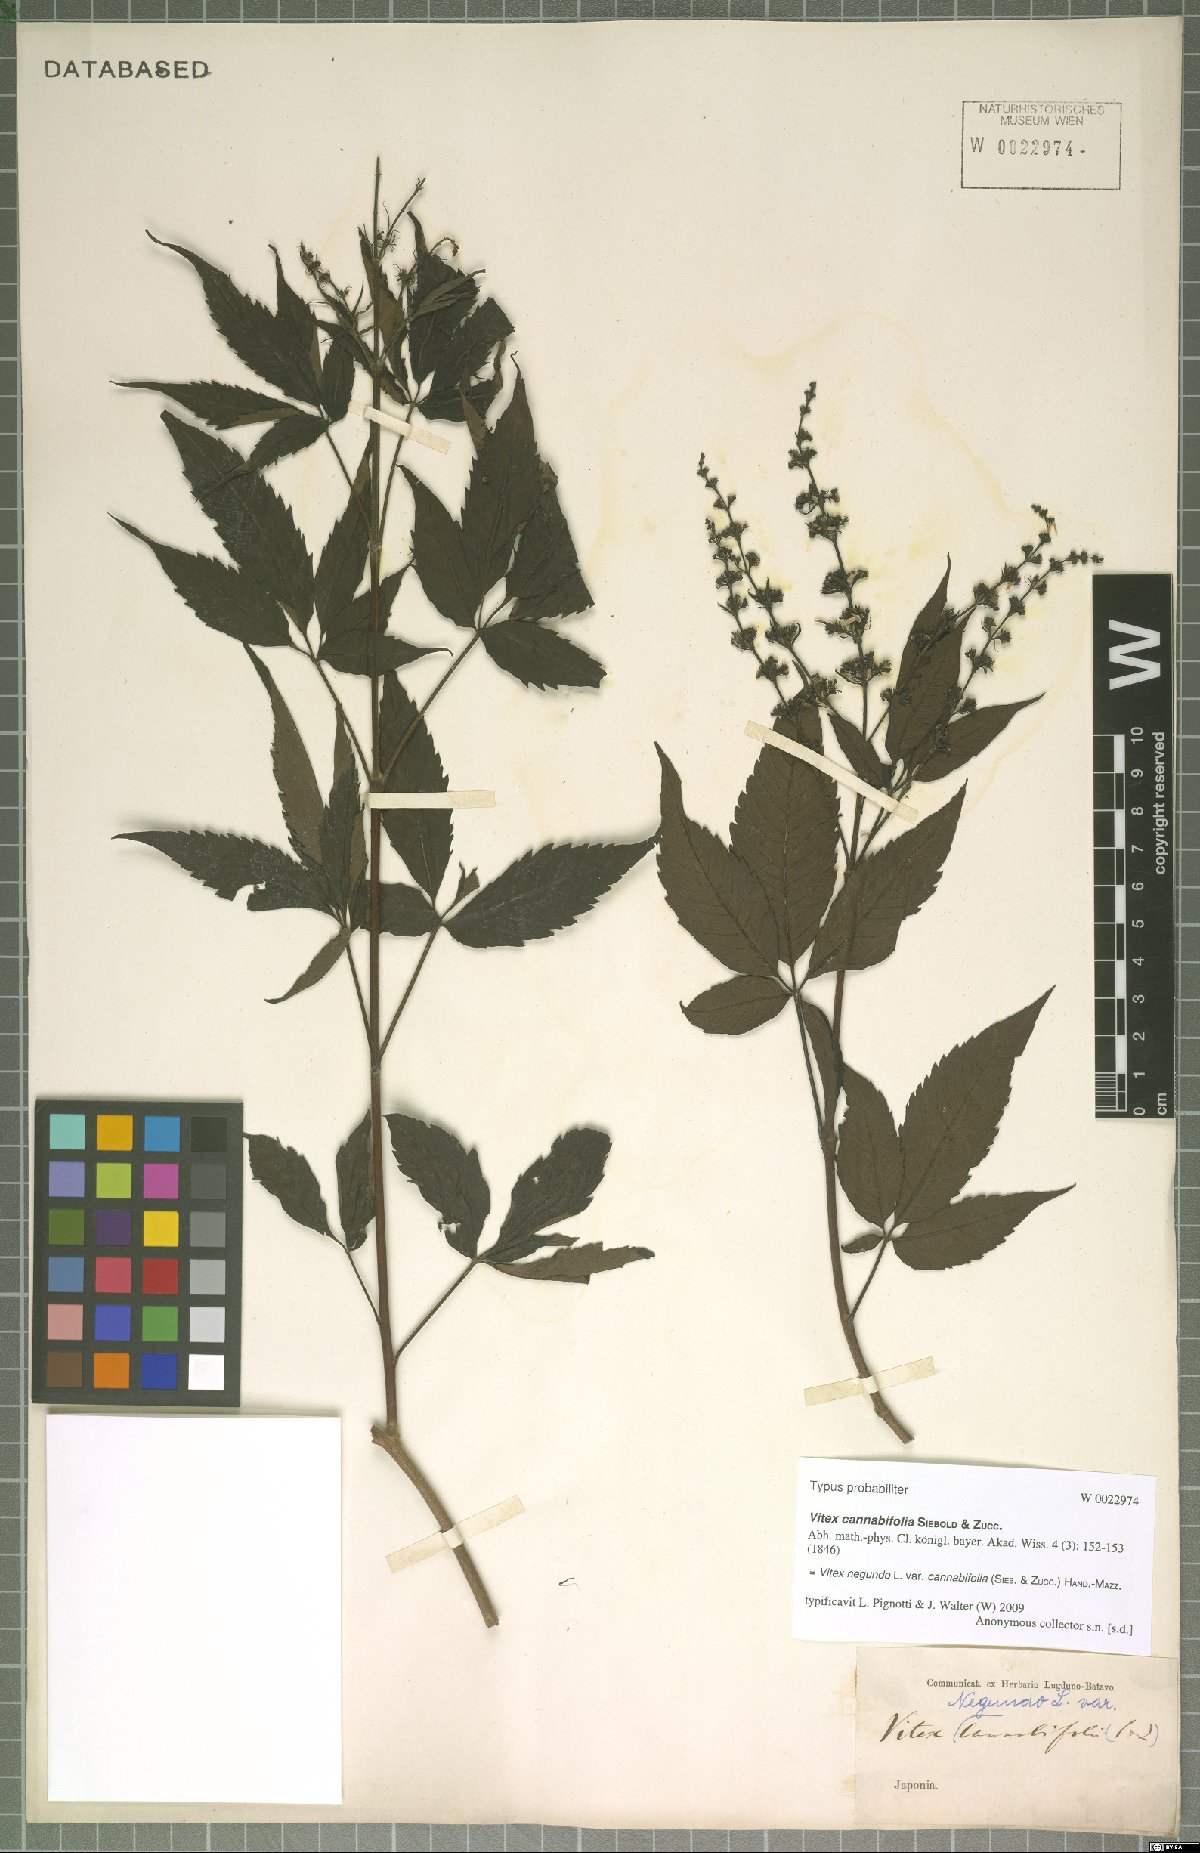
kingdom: Plantae
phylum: Tracheophyta
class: Magnoliopsida
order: Lamiales
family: Lamiaceae
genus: Vitex
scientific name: Vitex negundo
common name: Chinese chastetree
